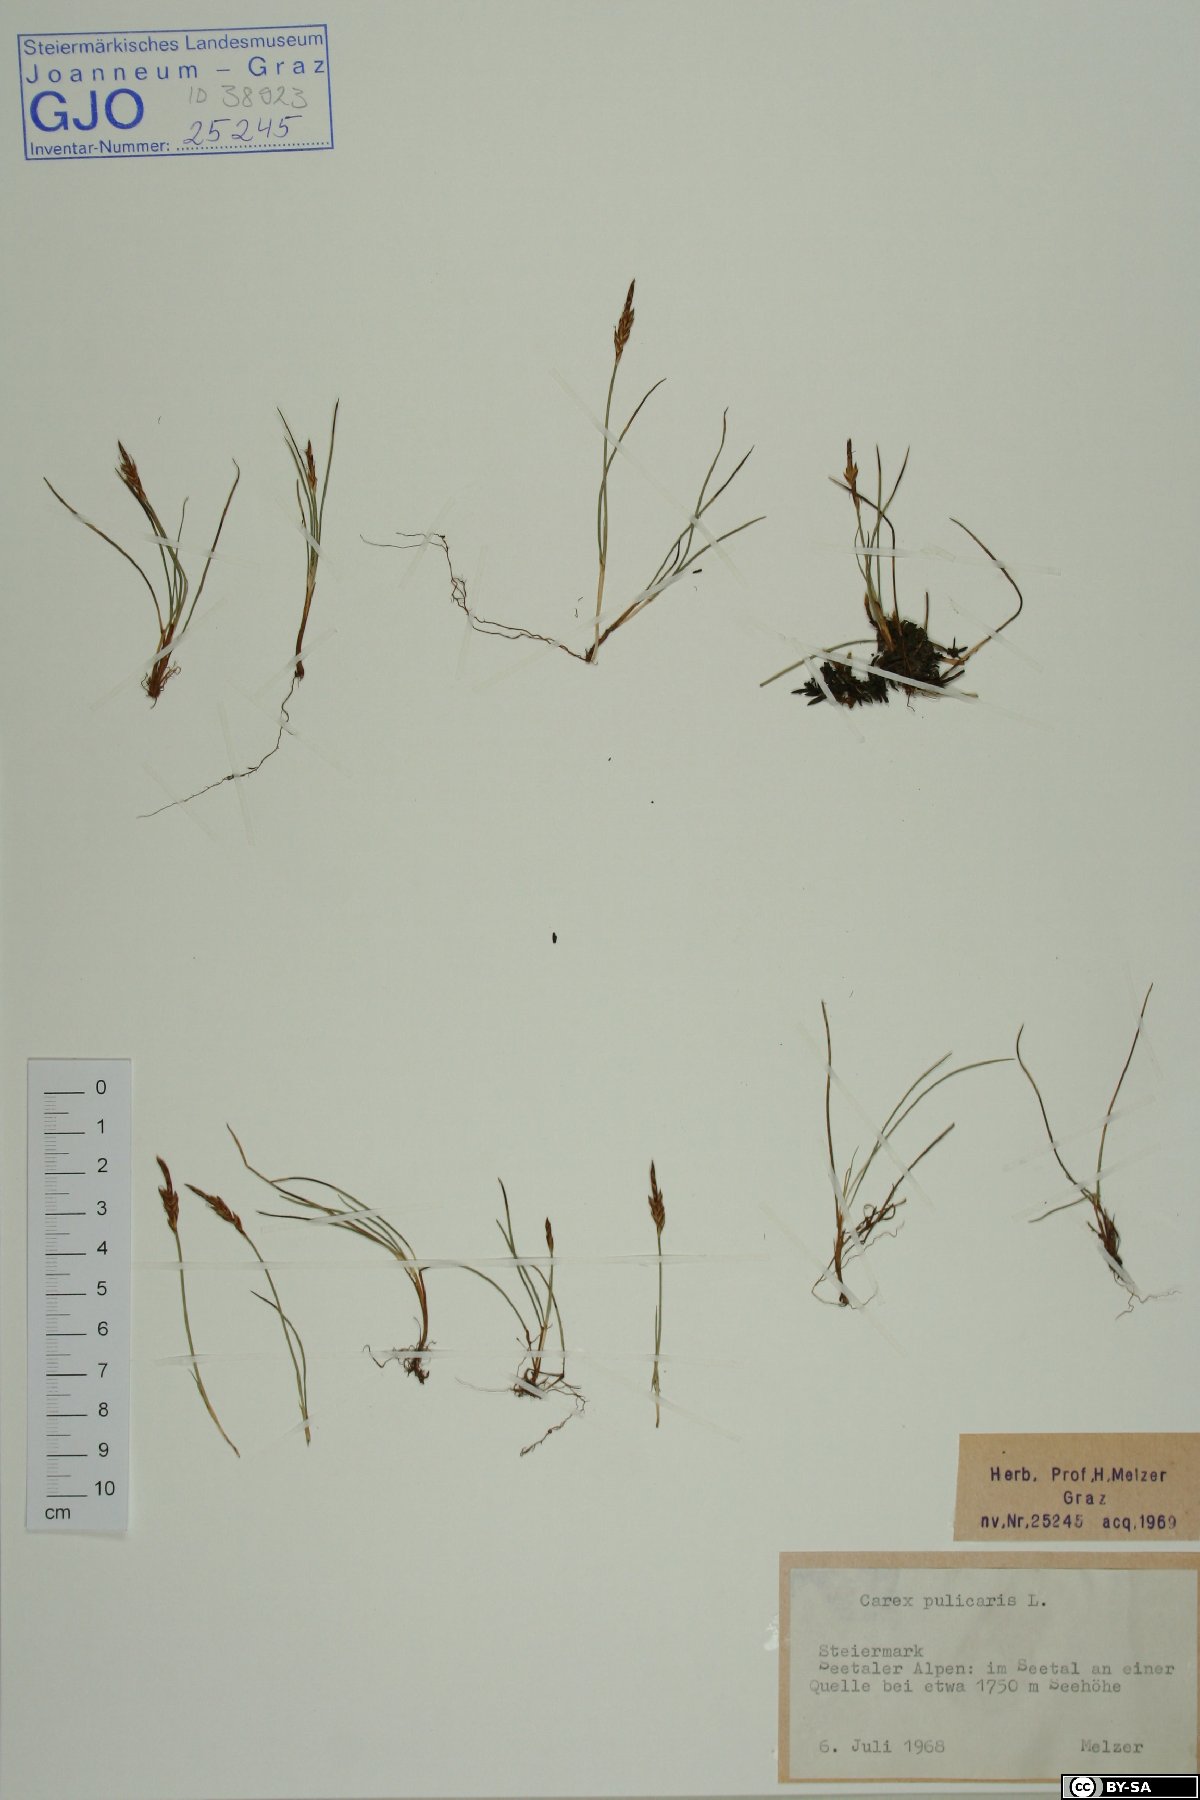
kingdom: Plantae
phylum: Tracheophyta
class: Liliopsida
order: Poales
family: Cyperaceae
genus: Carex
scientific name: Carex pulicaris
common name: Flea sedge
